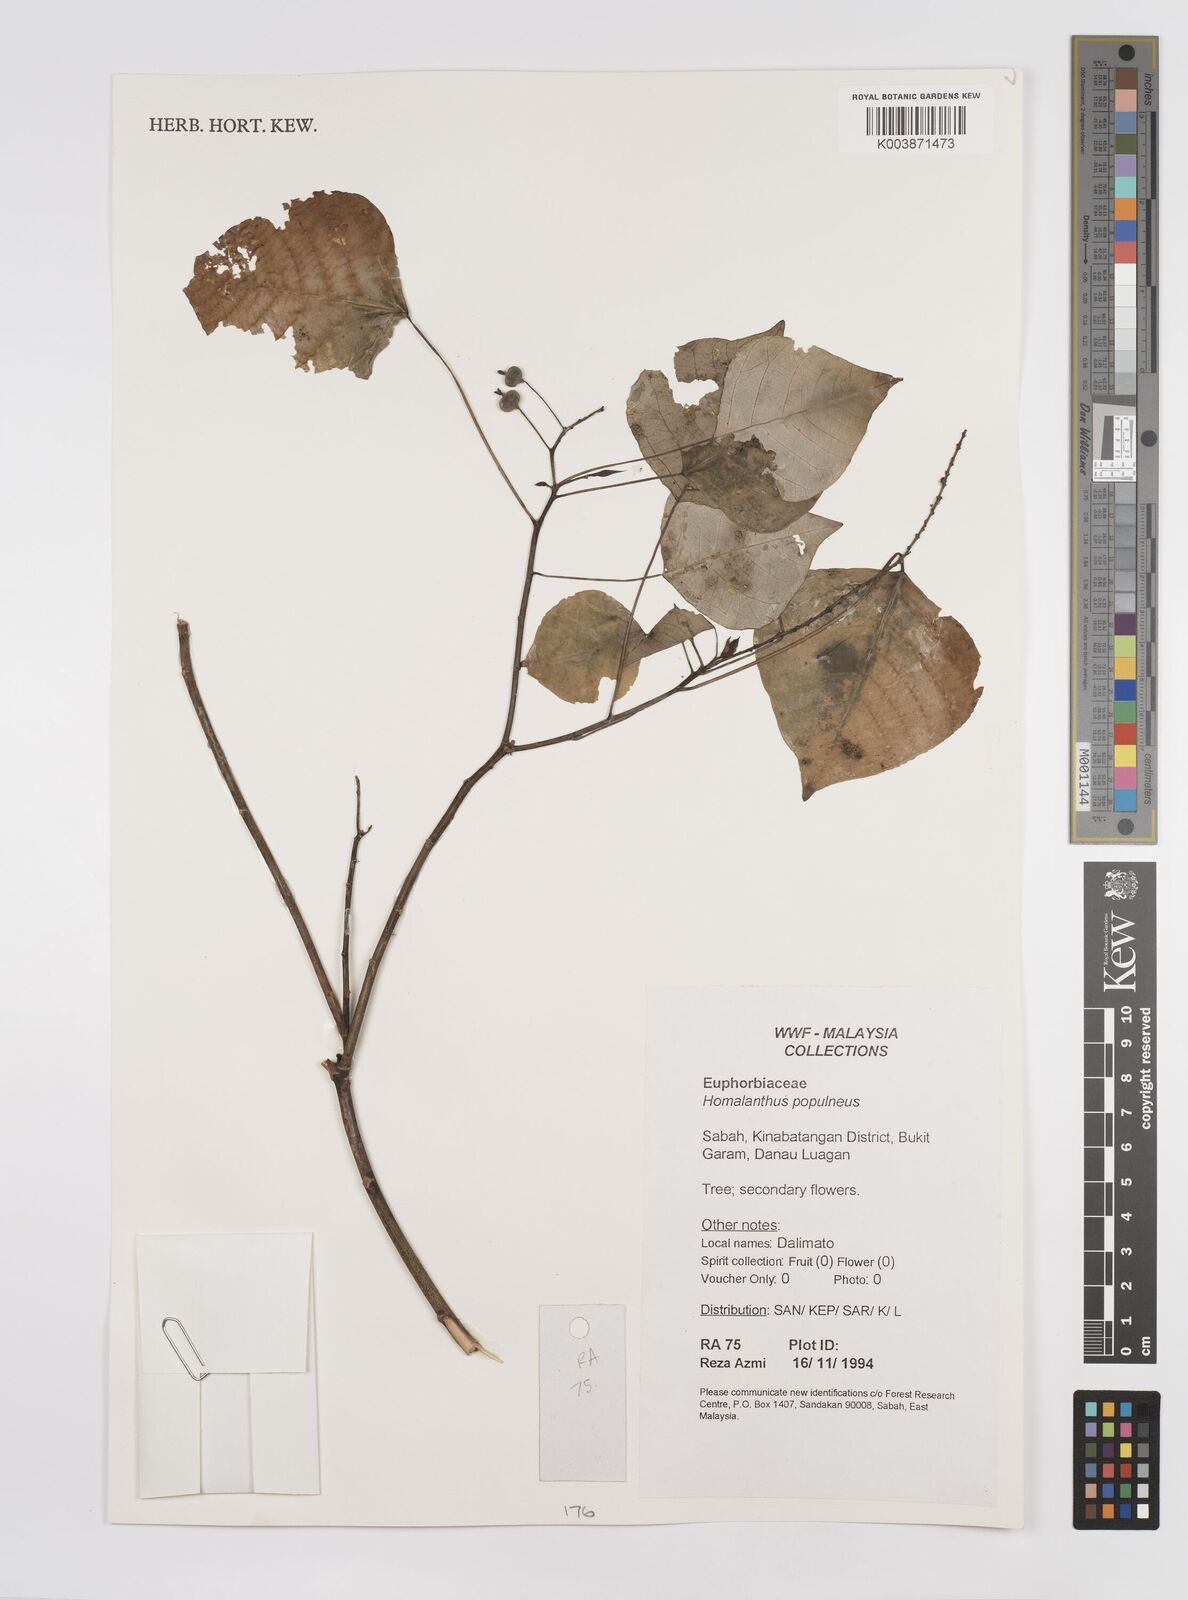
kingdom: Plantae
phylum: Tracheophyta
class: Magnoliopsida
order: Malpighiales
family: Euphorbiaceae
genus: Homalanthus
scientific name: Homalanthus populneus
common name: Spurge
